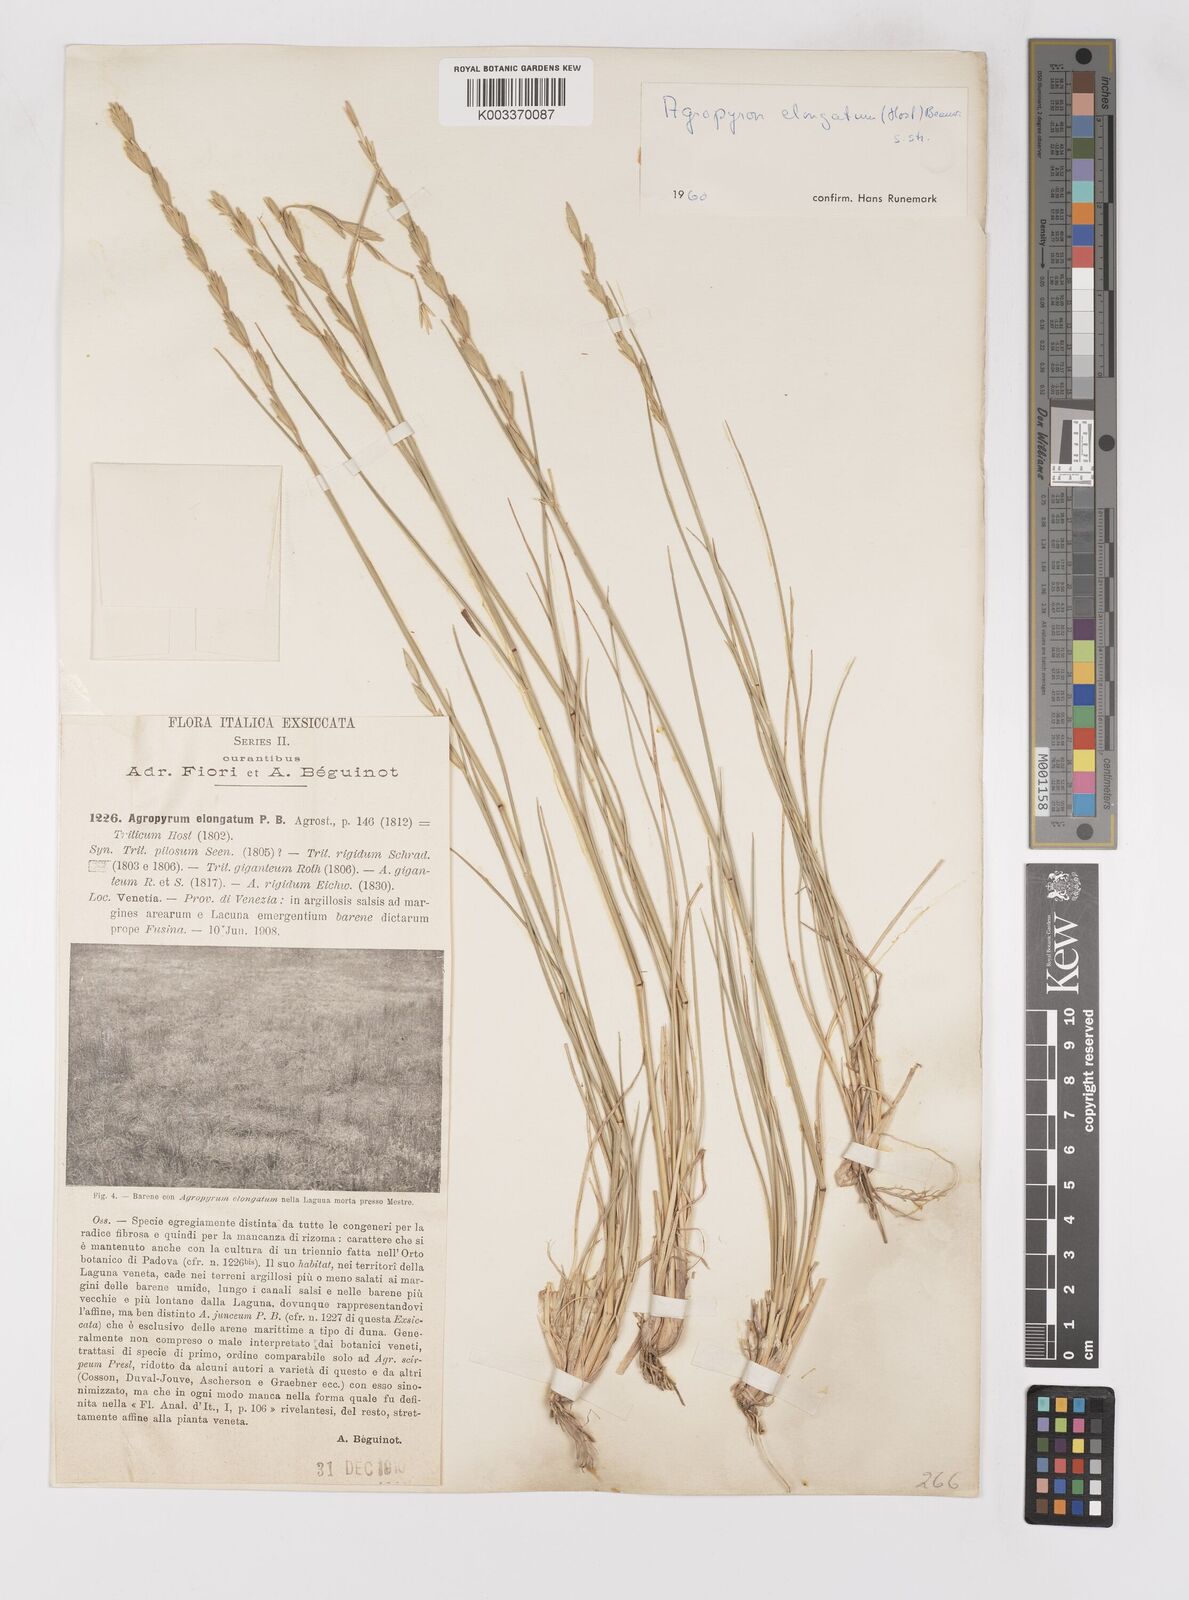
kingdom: Plantae
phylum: Tracheophyta
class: Liliopsida
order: Poales
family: Poaceae
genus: Thinopyrum
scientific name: Thinopyrum elongatum
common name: Tall wheatgrass
